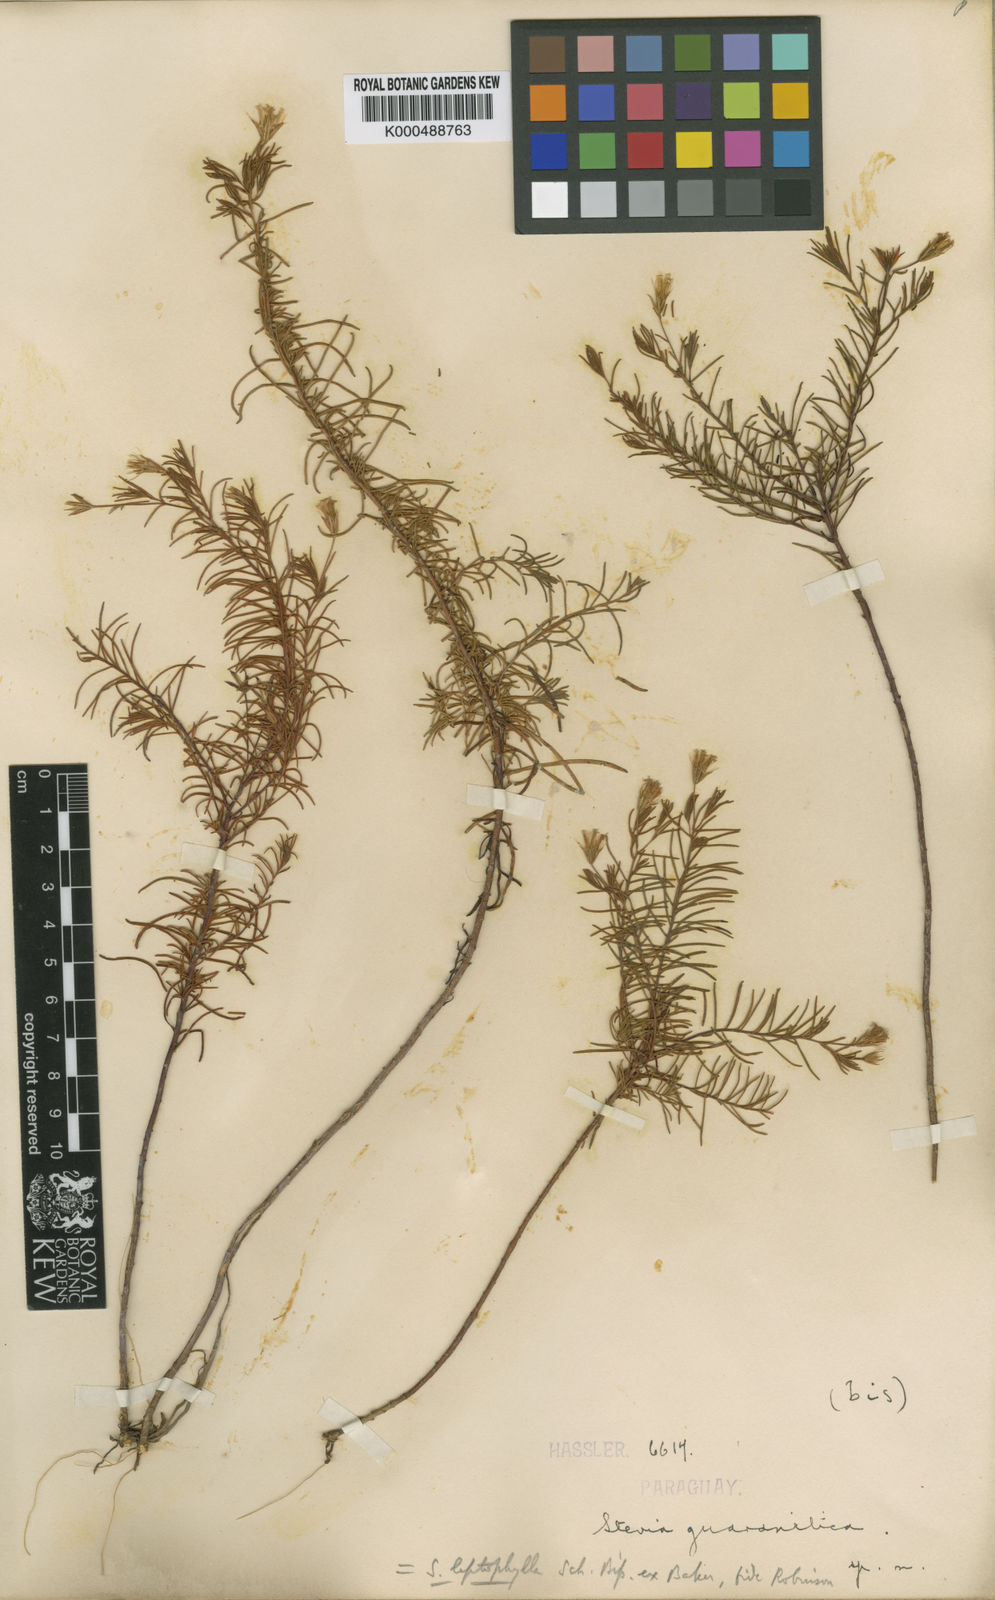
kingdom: Plantae
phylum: Tracheophyta
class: Magnoliopsida
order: Asterales
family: Asteraceae
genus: Stevia
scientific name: Stevia leptophylla
